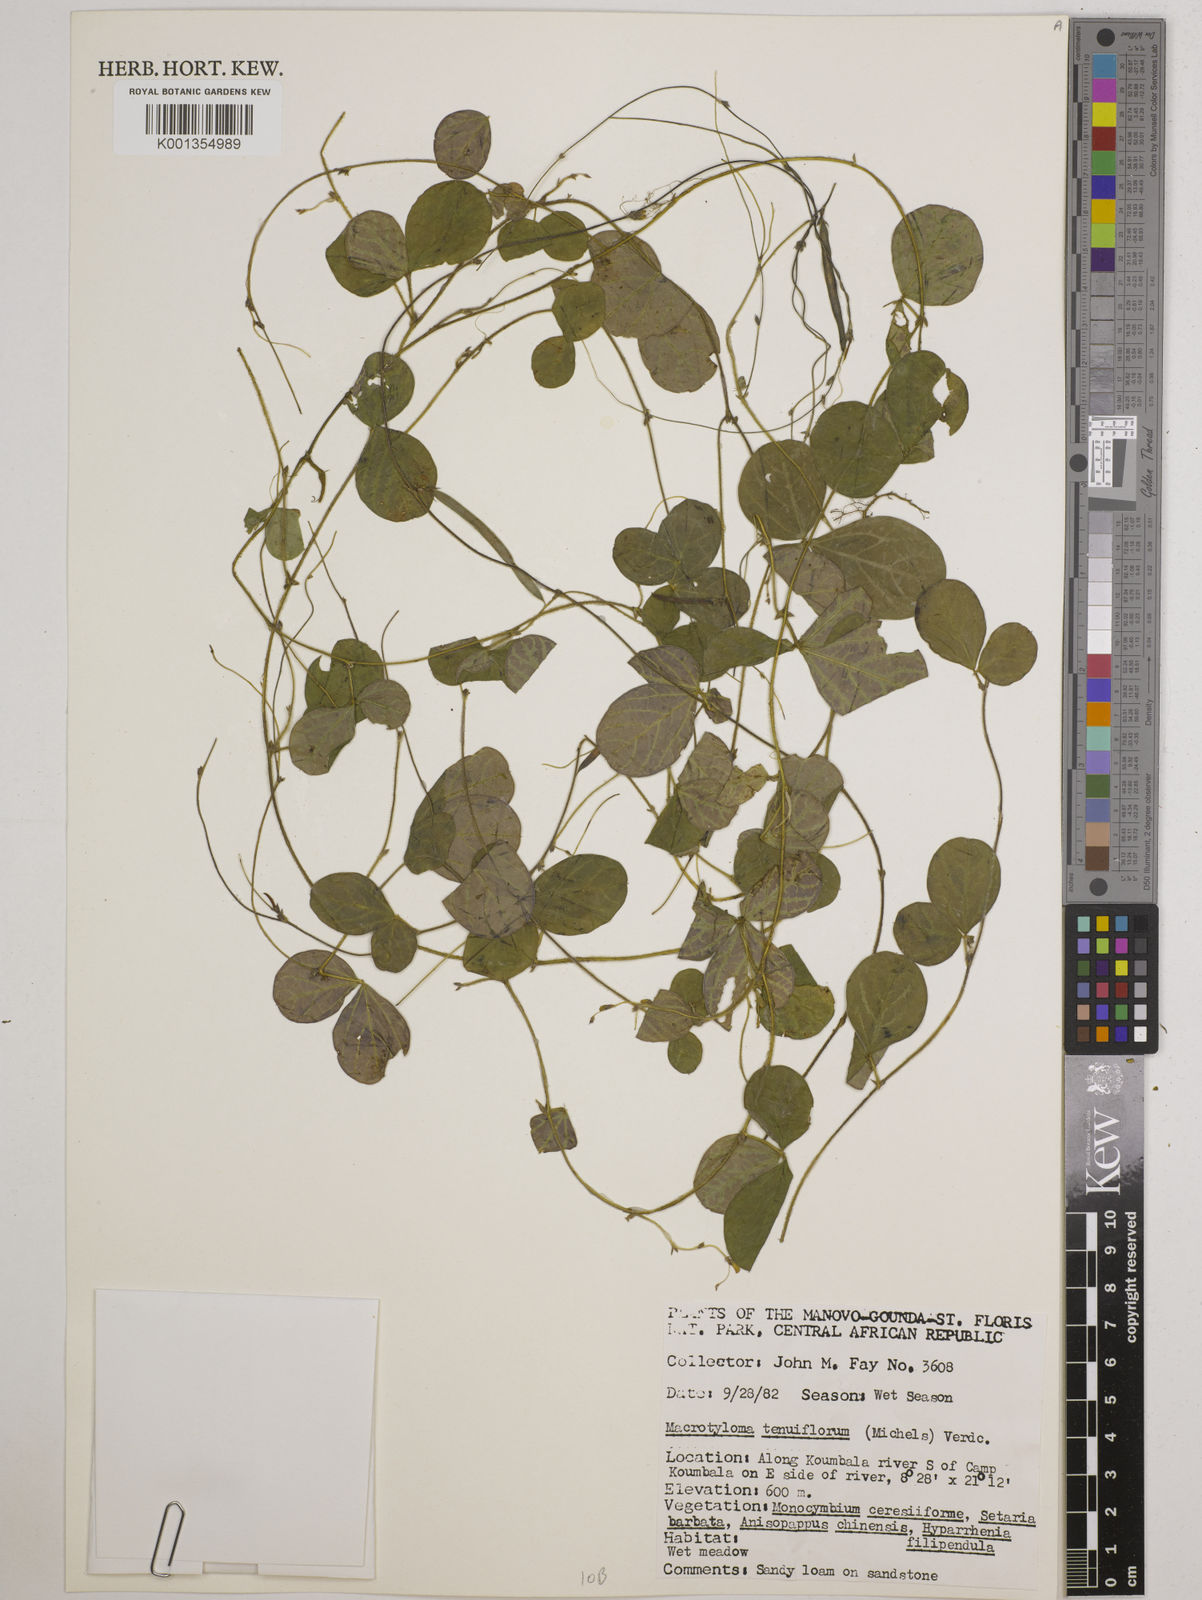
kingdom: Plantae
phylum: Tracheophyta
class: Magnoliopsida
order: Fabales
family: Fabaceae
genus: Macrotyloma
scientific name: Macrotyloma tenuiflorum
